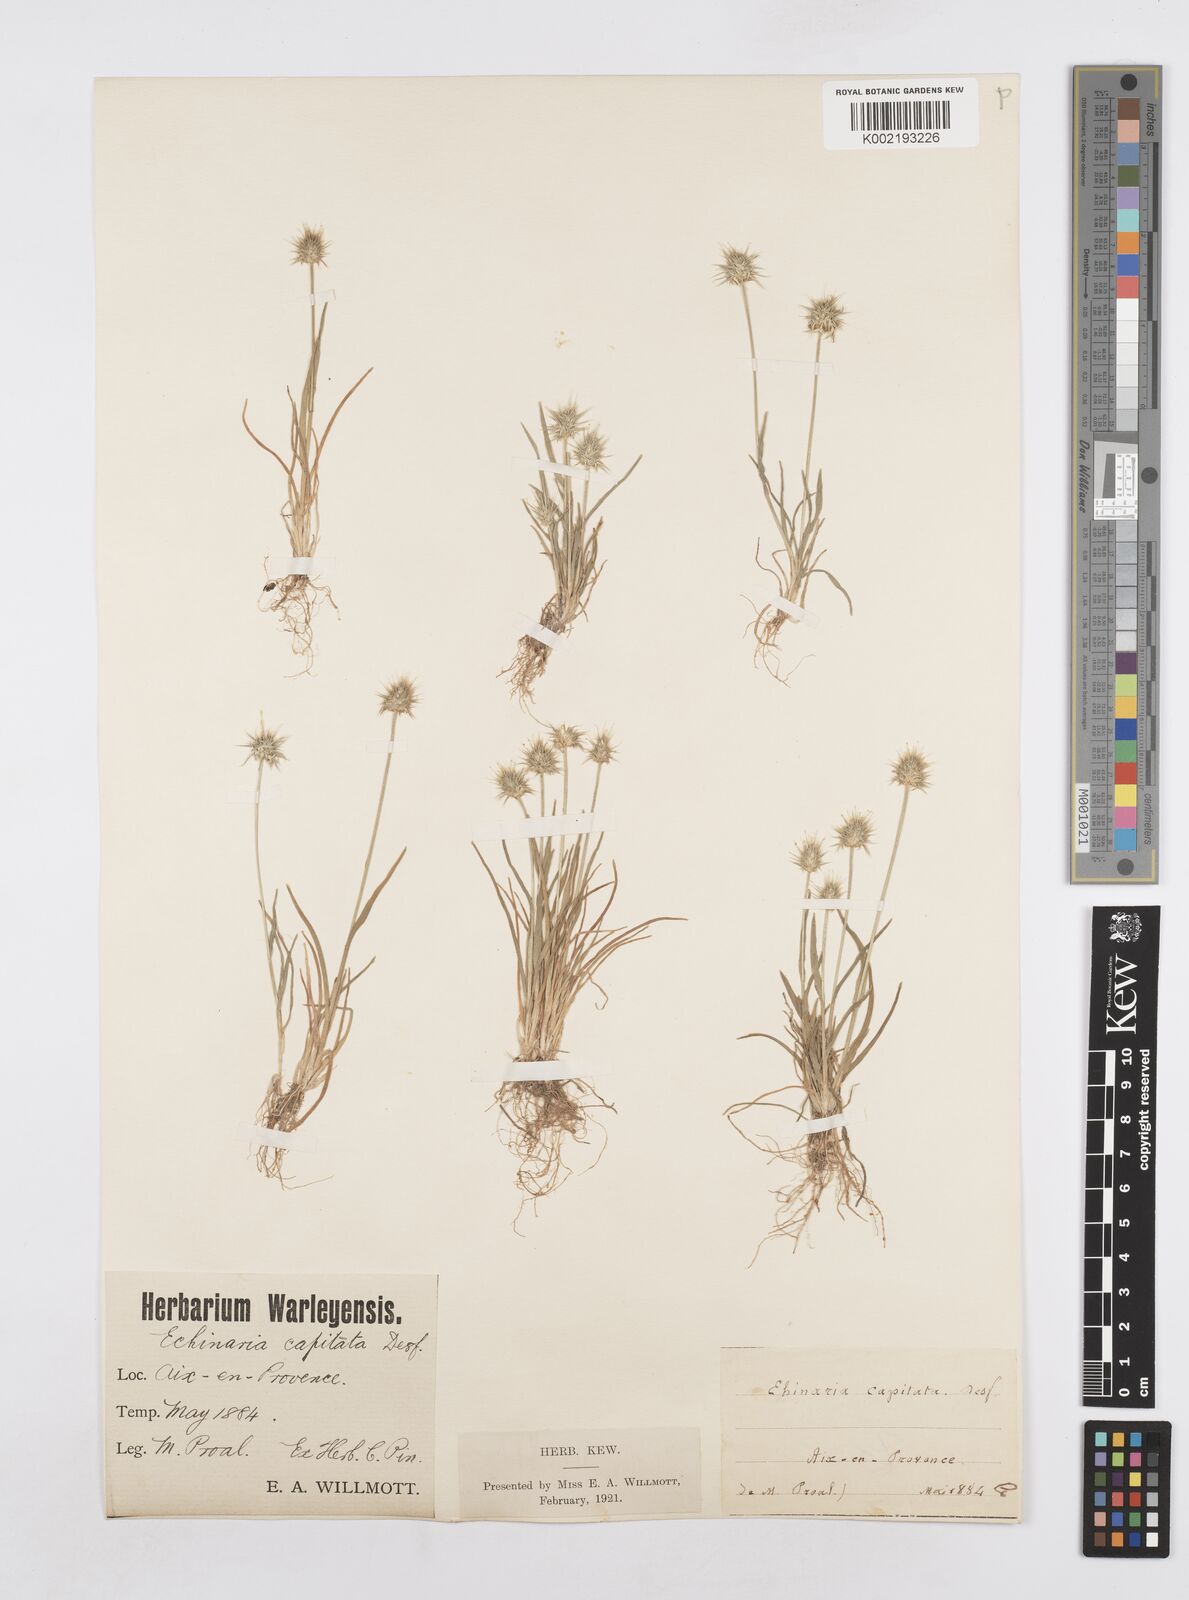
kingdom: Plantae
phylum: Tracheophyta
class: Liliopsida
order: Poales
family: Poaceae
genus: Echinaria
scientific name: Echinaria capitata
